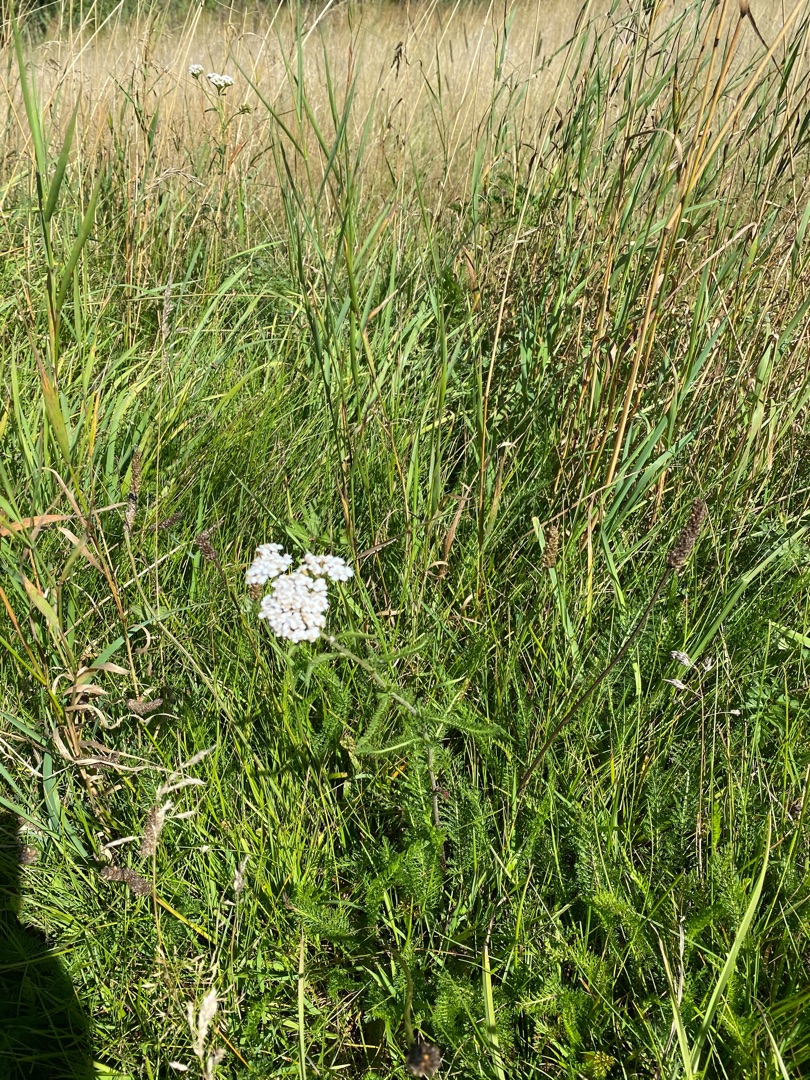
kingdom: Plantae
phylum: Tracheophyta
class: Magnoliopsida
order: Asterales
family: Asteraceae
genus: Achillea
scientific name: Achillea millefolium
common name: Almindelig røllike
